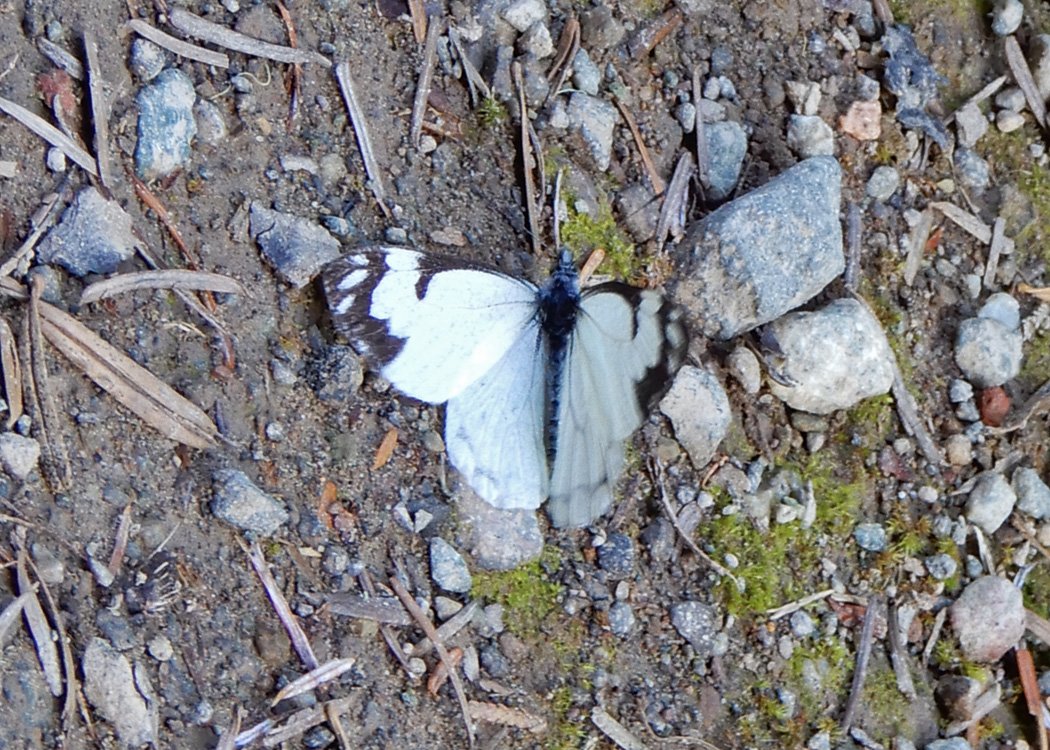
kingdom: Animalia
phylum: Arthropoda
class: Insecta
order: Lepidoptera
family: Pieridae
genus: Neophasia
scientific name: Neophasia menapia
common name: Pine White
